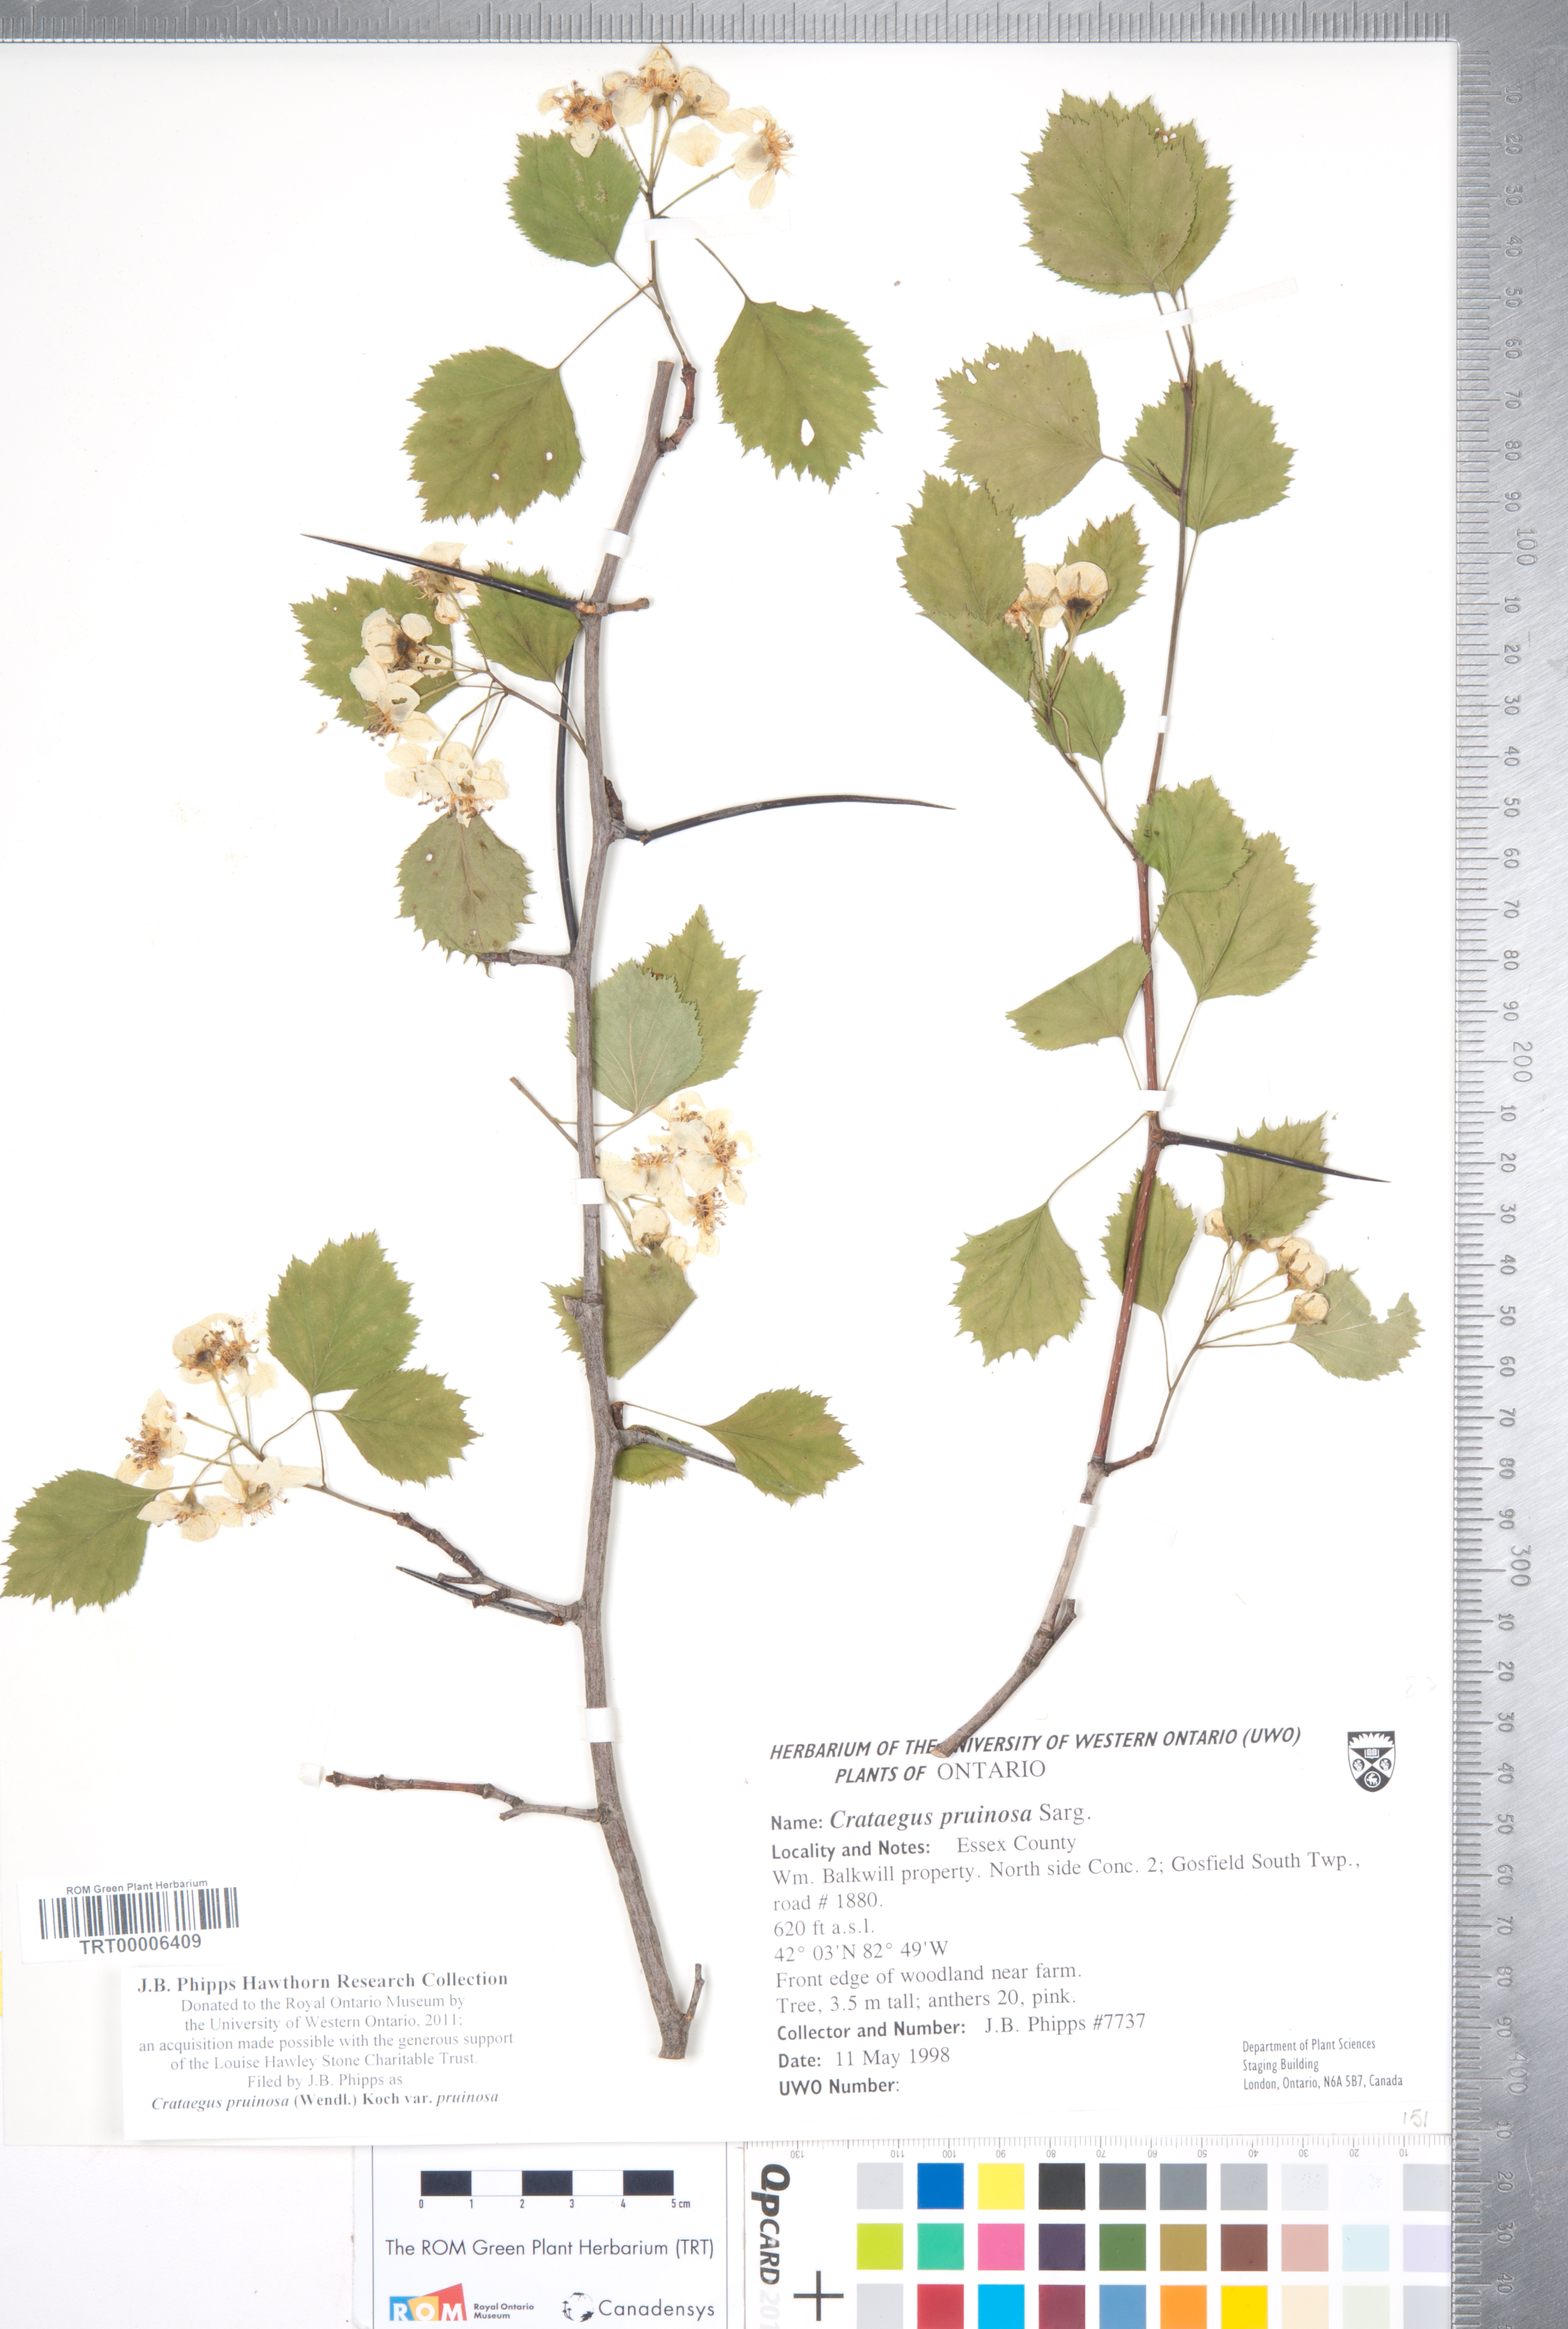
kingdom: Plantae
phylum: Tracheophyta
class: Magnoliopsida
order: Rosales
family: Rosaceae
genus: Crataegus
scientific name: Crataegus pruinosa
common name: Waxy-fruit hawthorn
